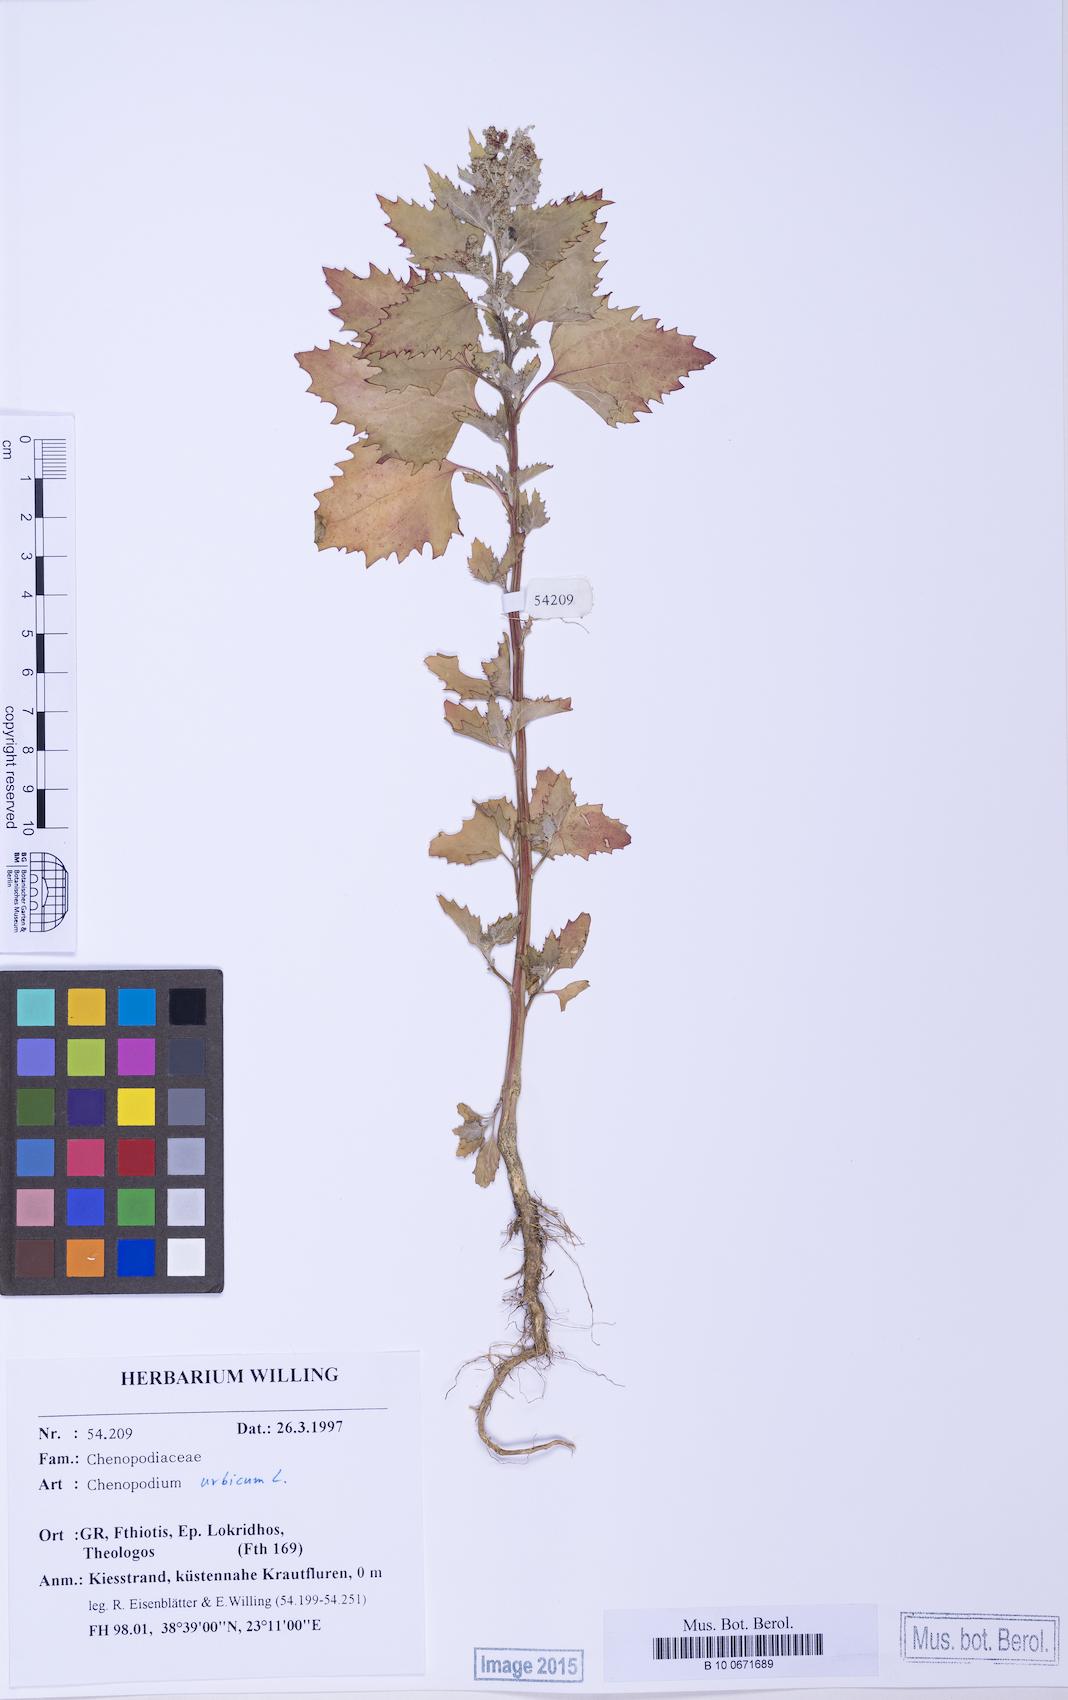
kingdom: Plantae
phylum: Tracheophyta
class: Magnoliopsida
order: Caryophyllales
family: Amaranthaceae
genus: Chenopodiastrum
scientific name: Chenopodiastrum murale
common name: Sowbane
